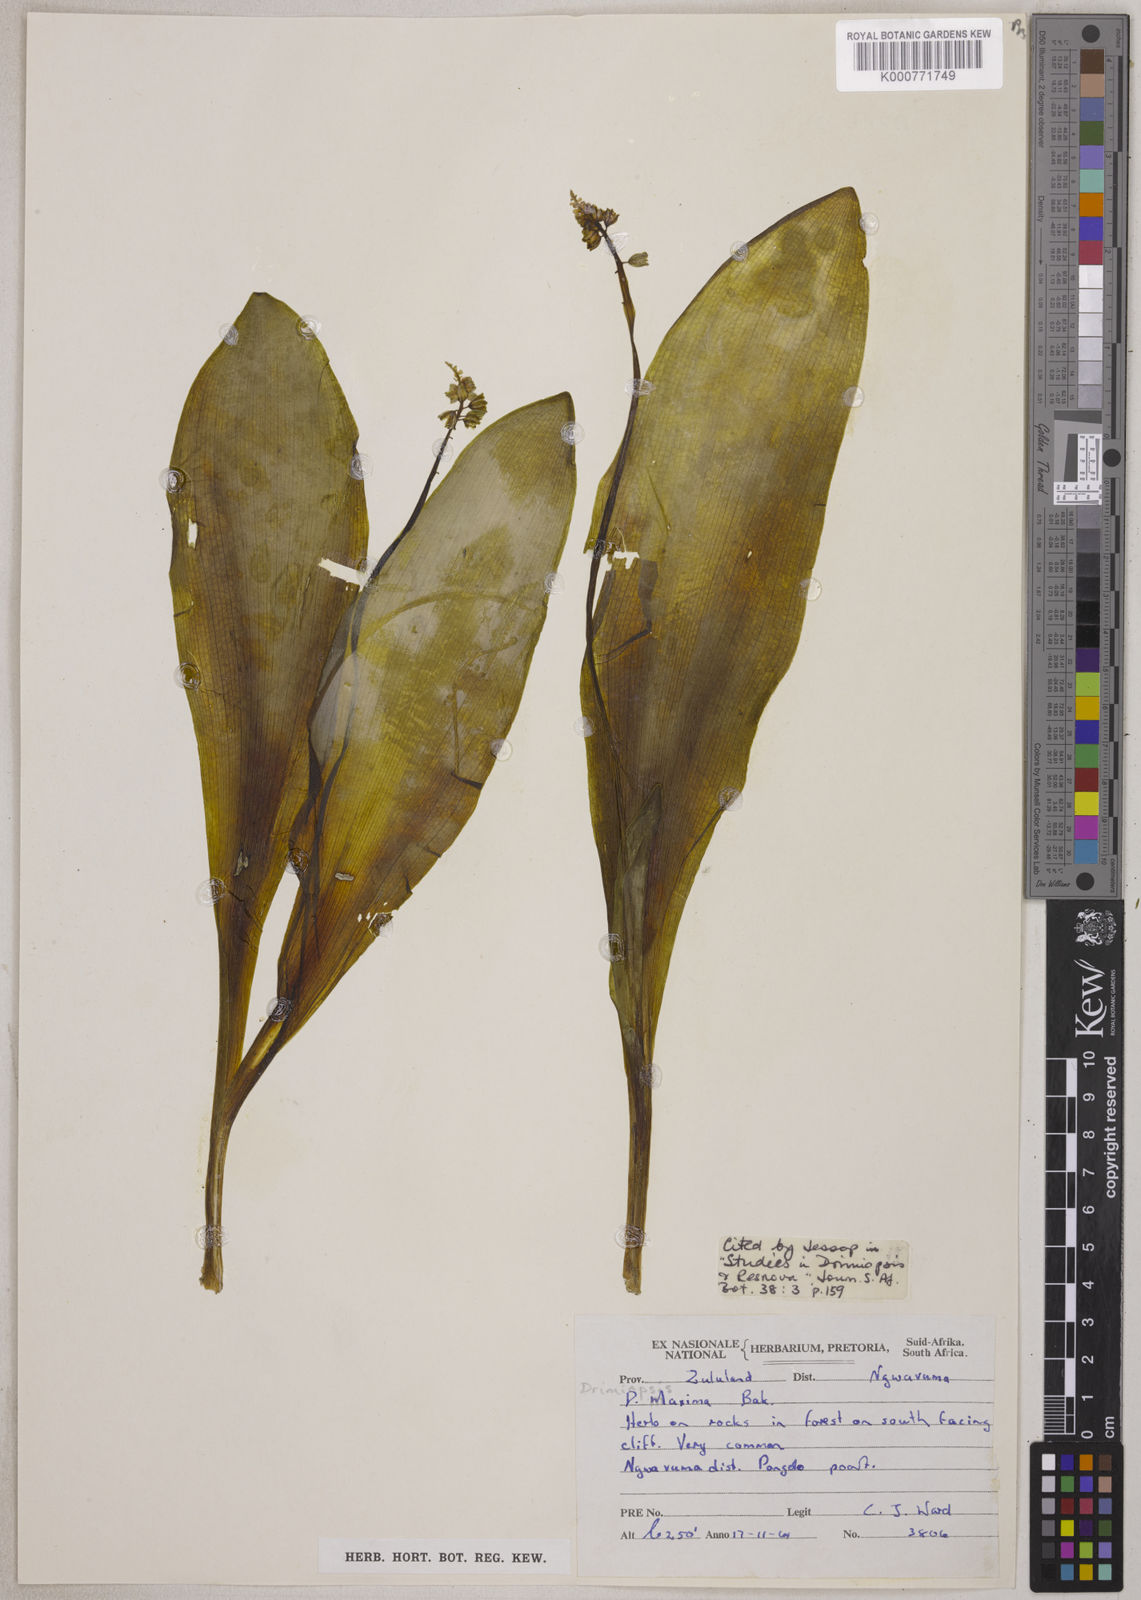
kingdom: Plantae
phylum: Tracheophyta
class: Liliopsida
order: Asparagales
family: Asparagaceae
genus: Resnova
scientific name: Resnova humifusa
